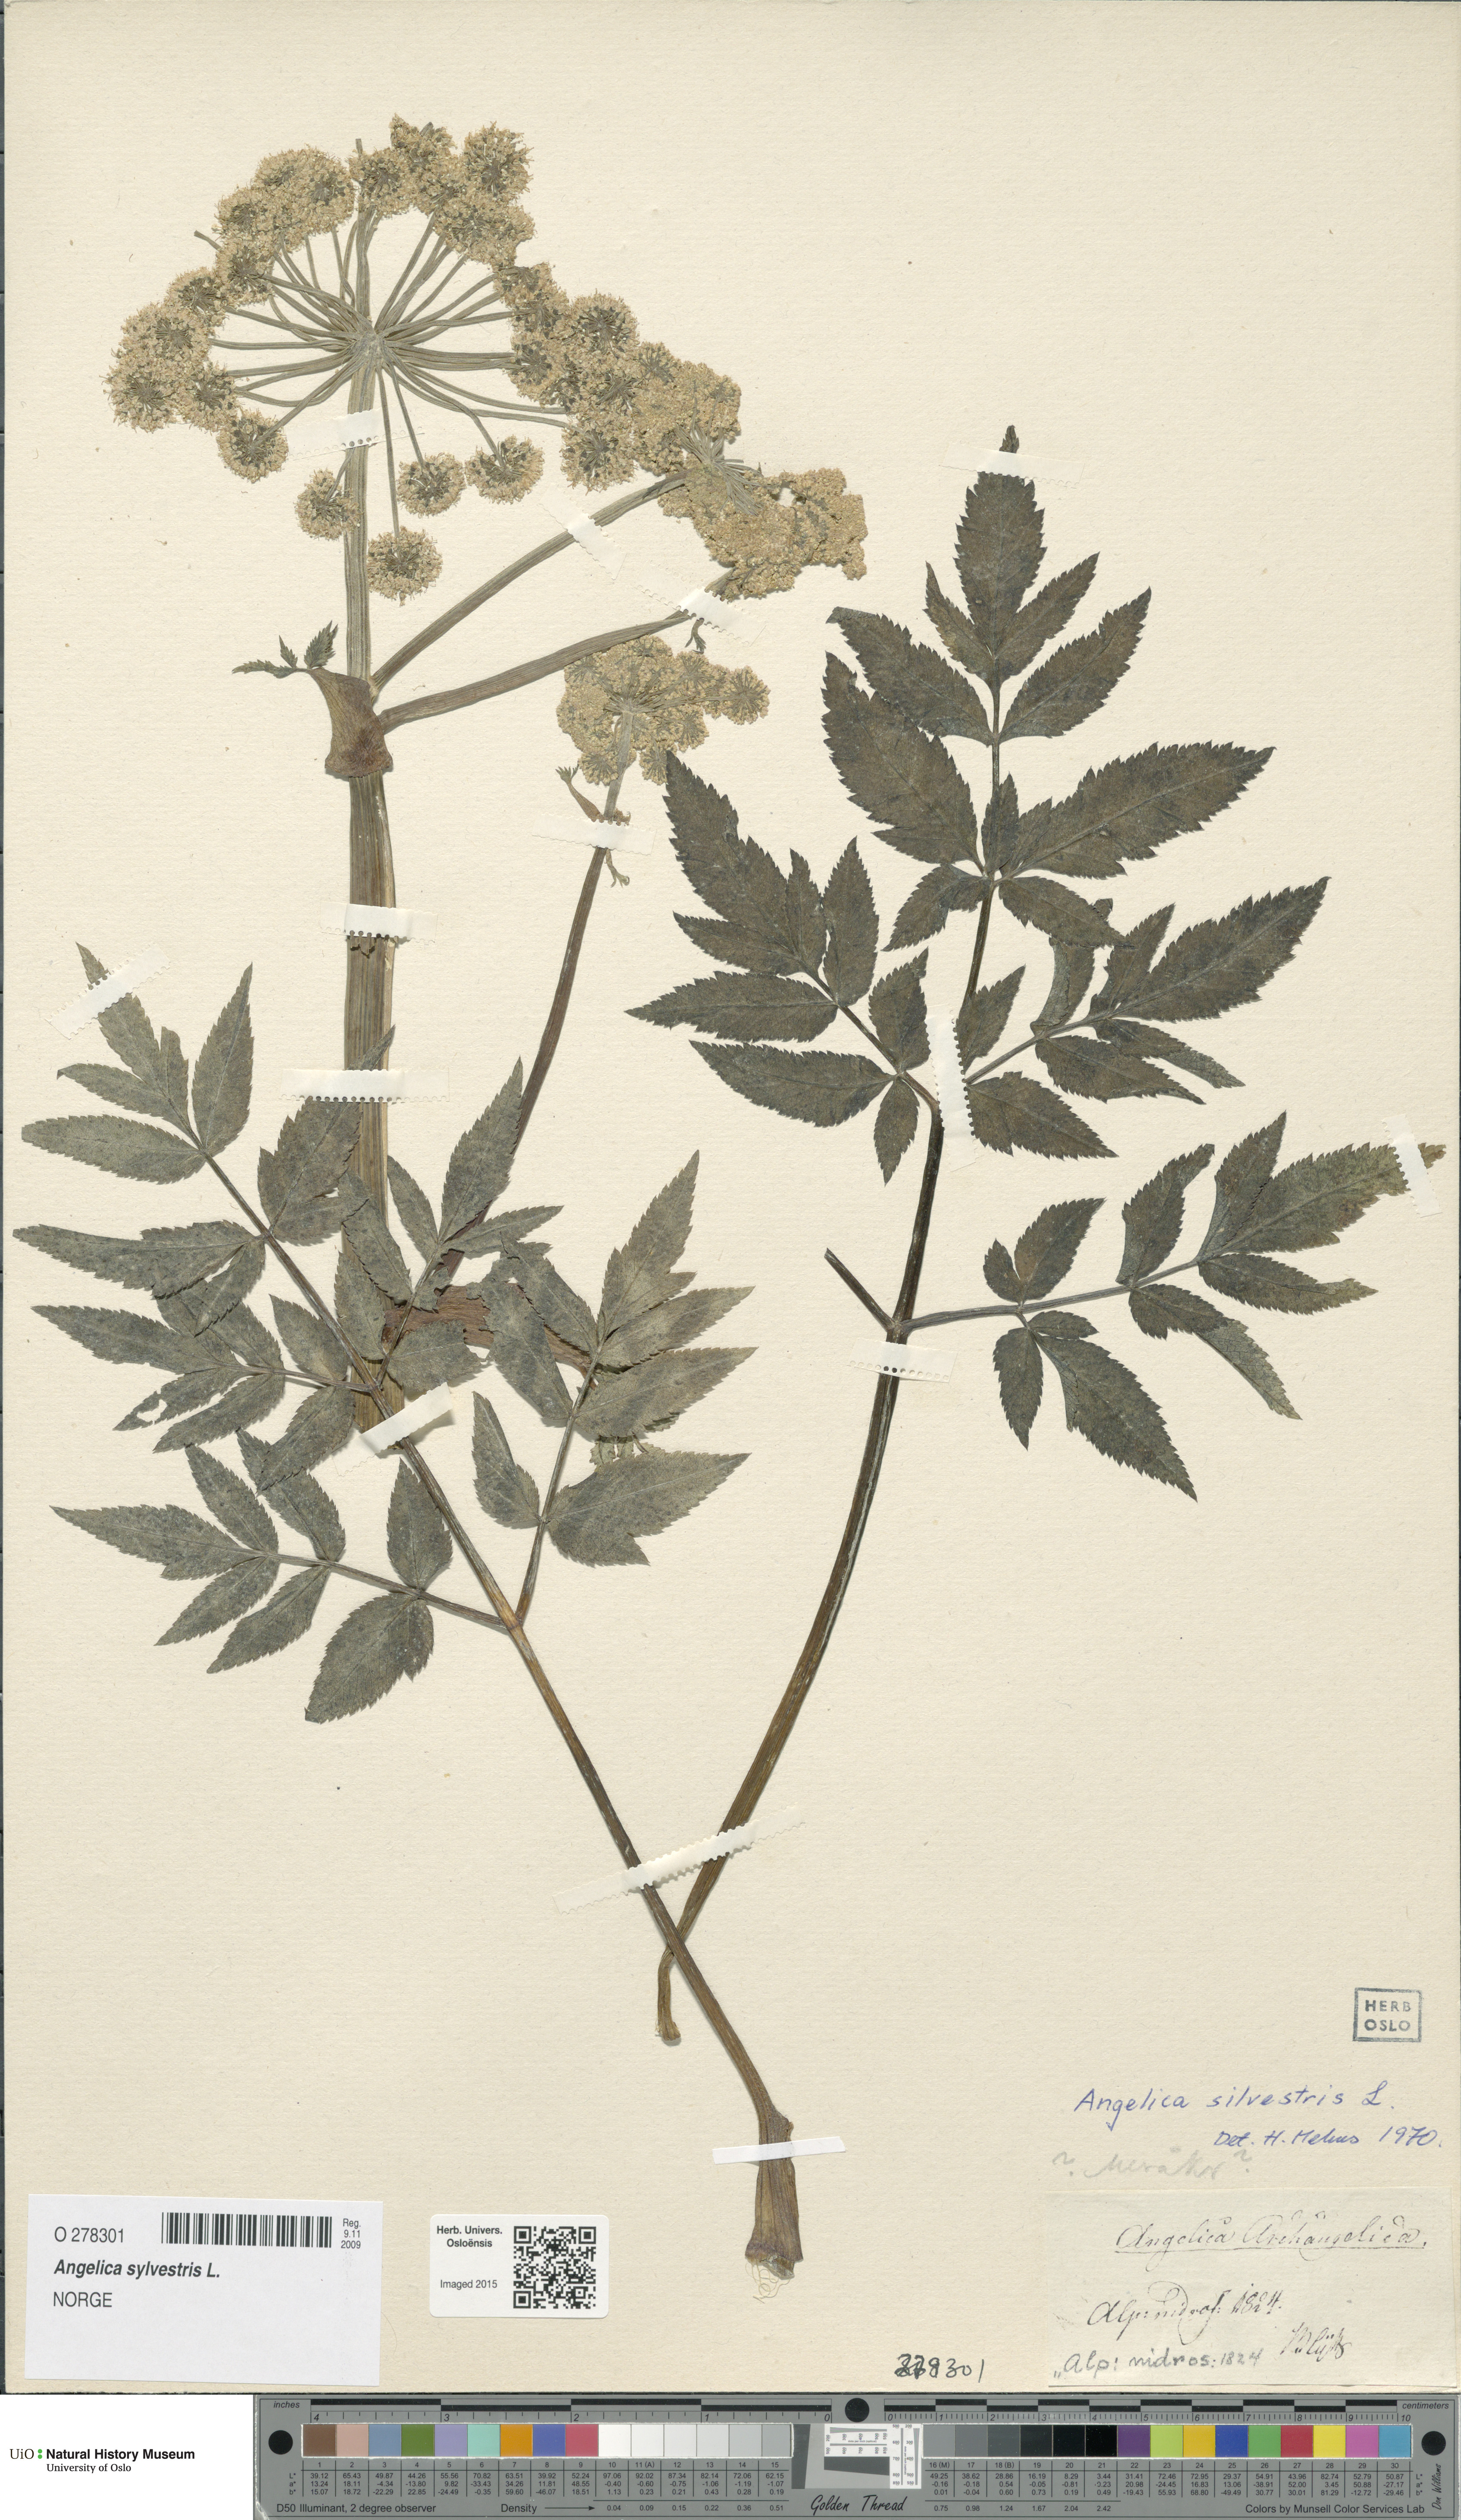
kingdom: Plantae
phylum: Tracheophyta
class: Magnoliopsida
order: Apiales
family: Apiaceae
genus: Angelica
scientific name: Angelica sylvestris
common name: Wild angelica
